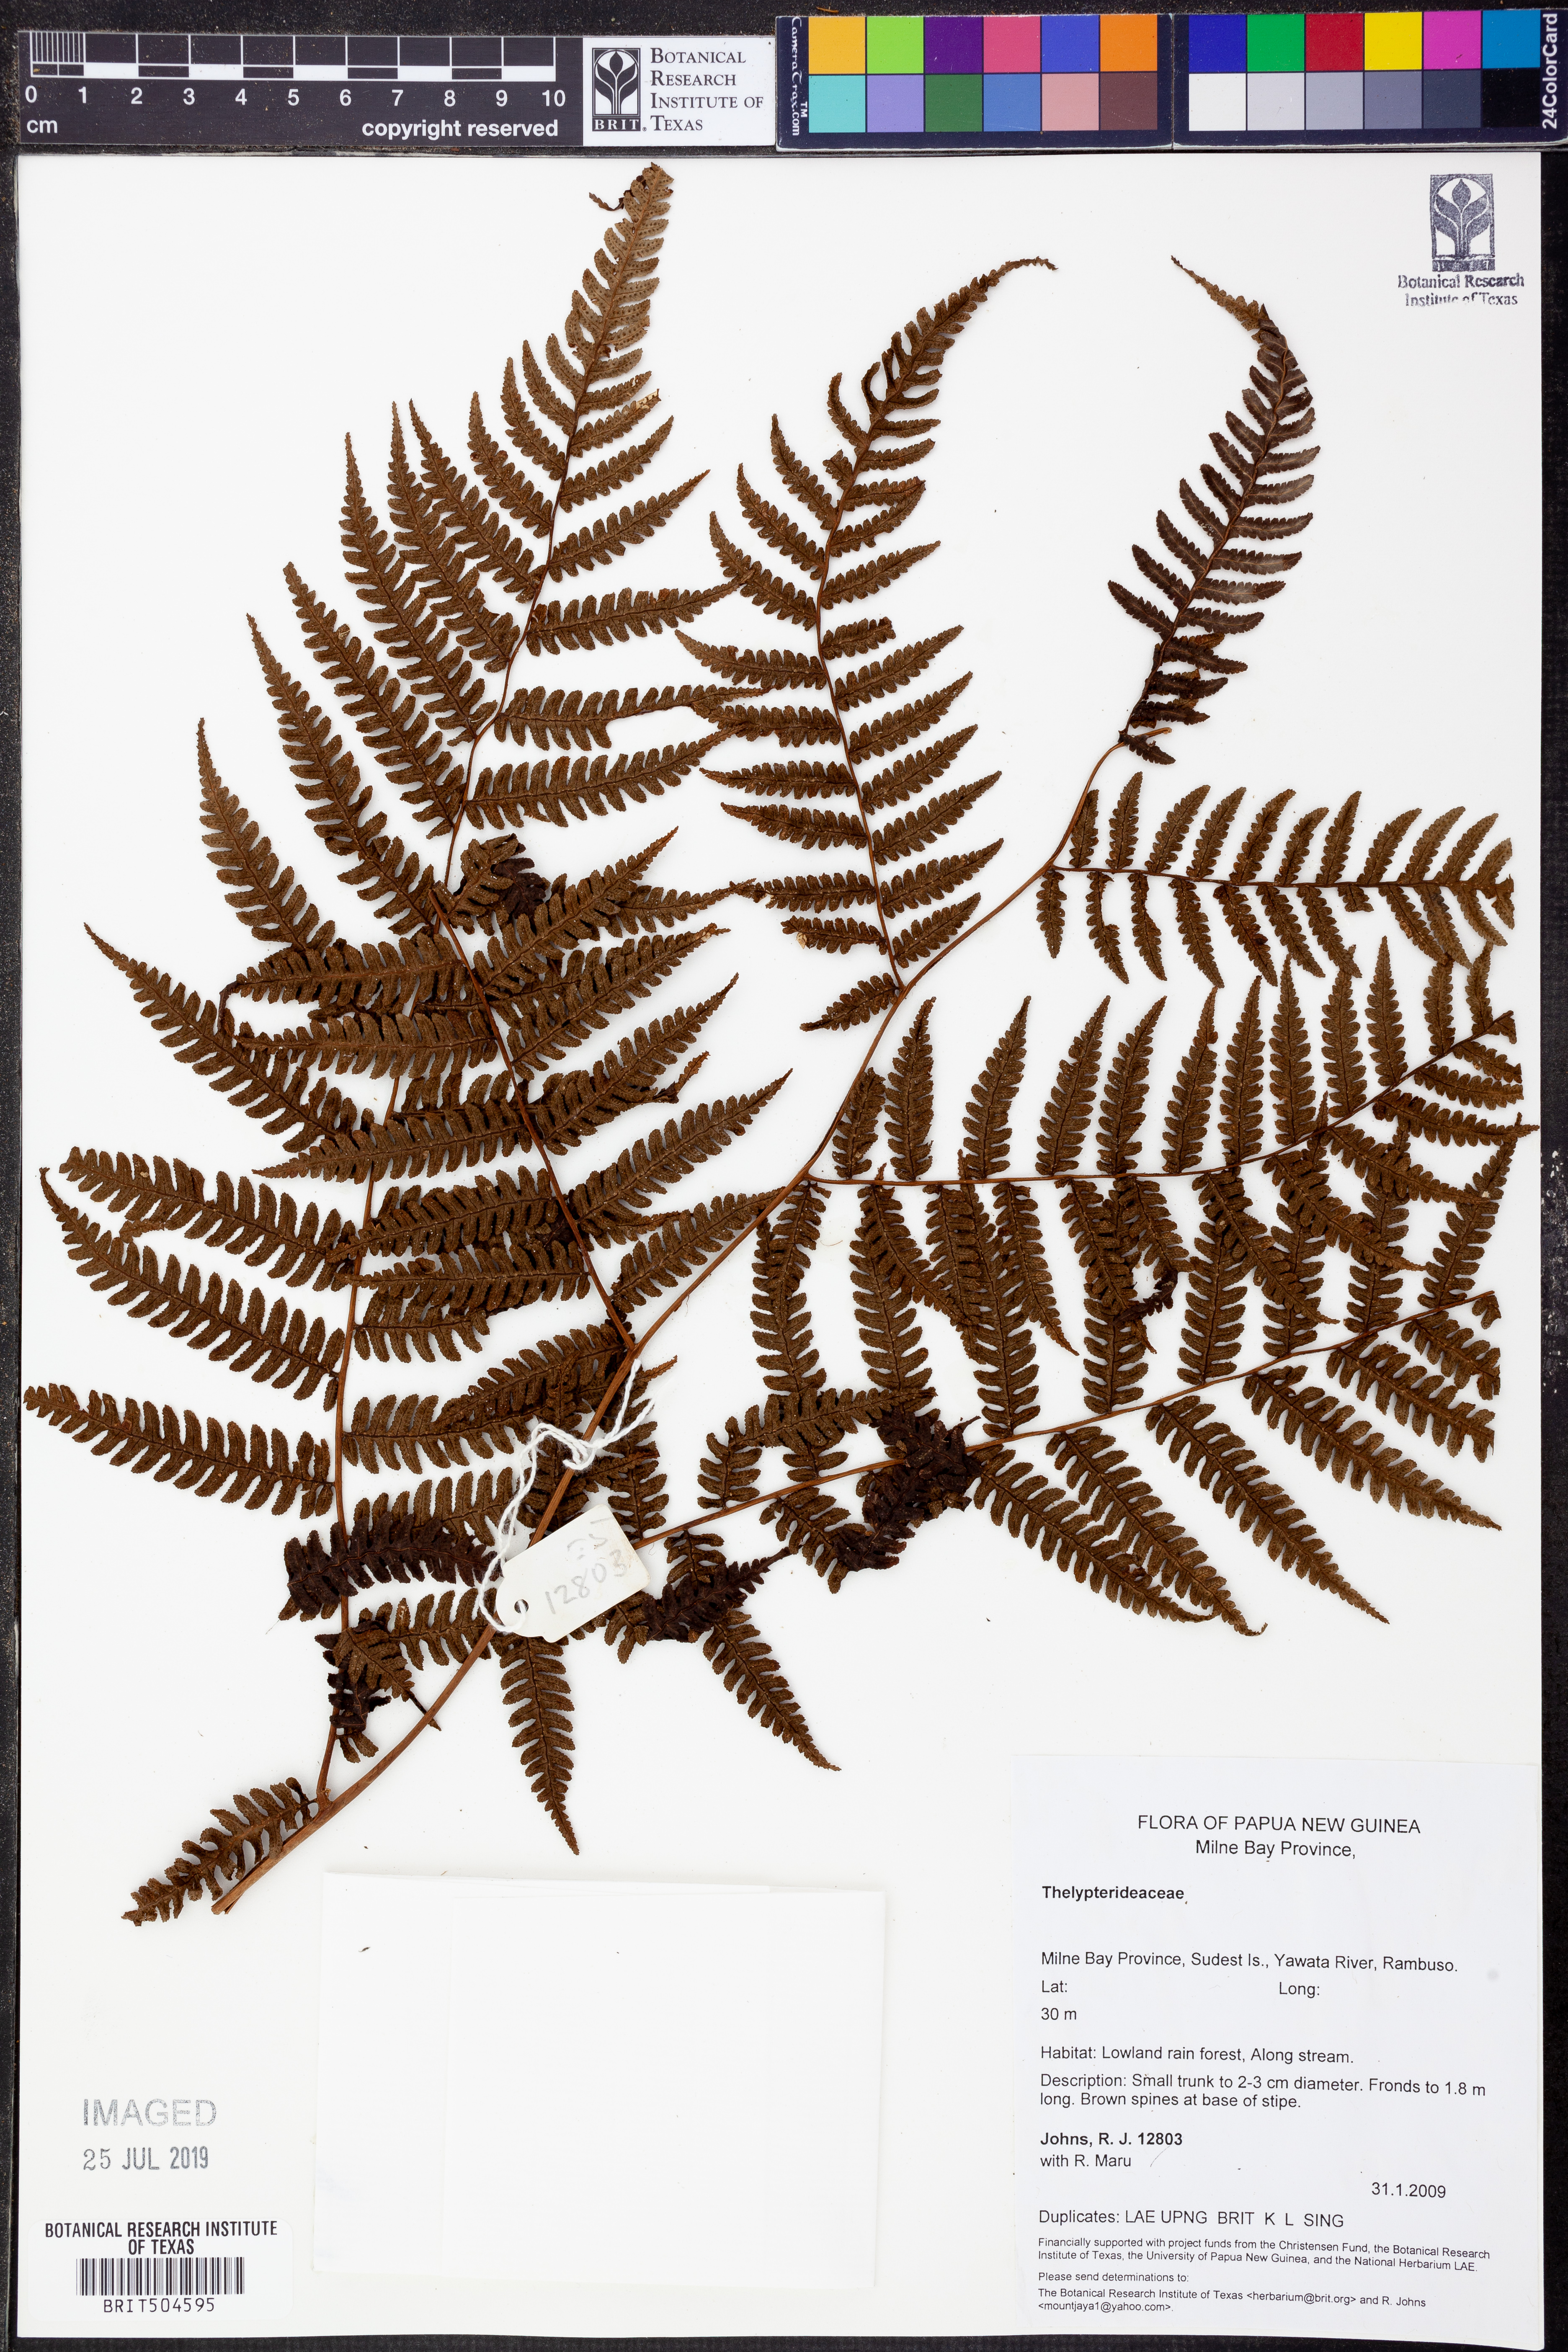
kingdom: Plantae
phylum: Tracheophyta
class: Polypodiopsida
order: Polypodiales
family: Thelypteridaceae
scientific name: Thelypteridaceae
